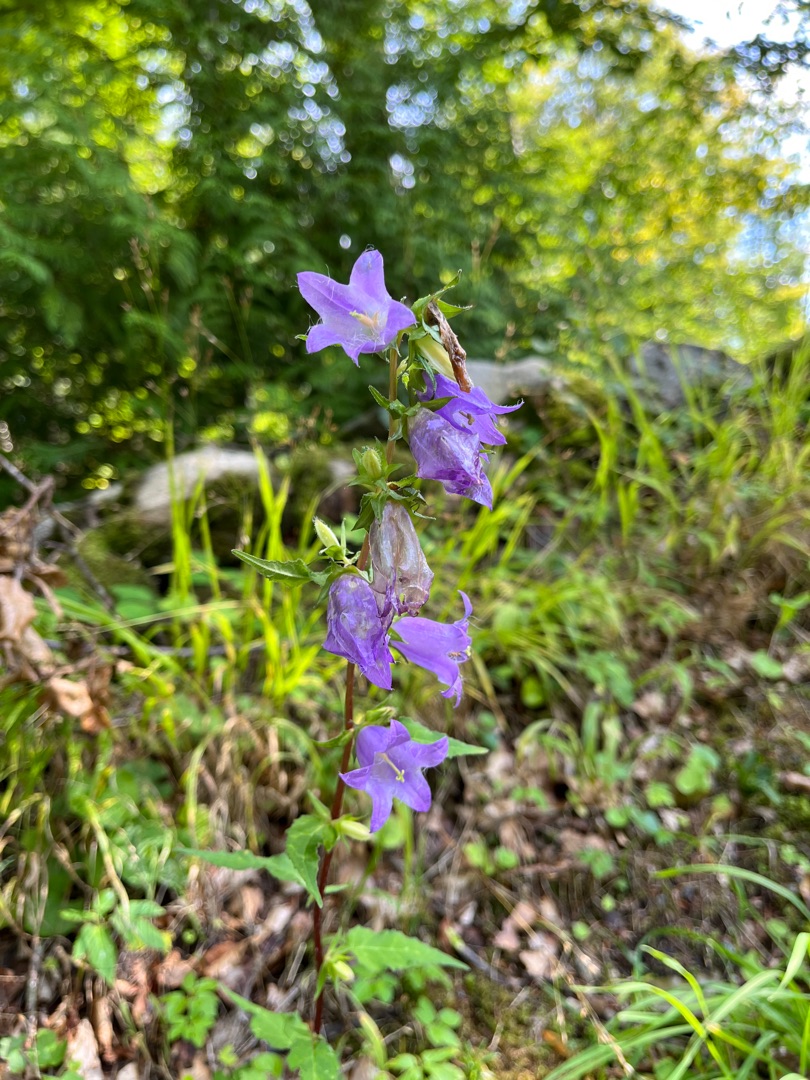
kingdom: Plantae
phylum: Tracheophyta
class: Magnoliopsida
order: Asterales
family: Campanulaceae
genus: Campanula
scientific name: Campanula trachelium
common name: Nælde-klokke
